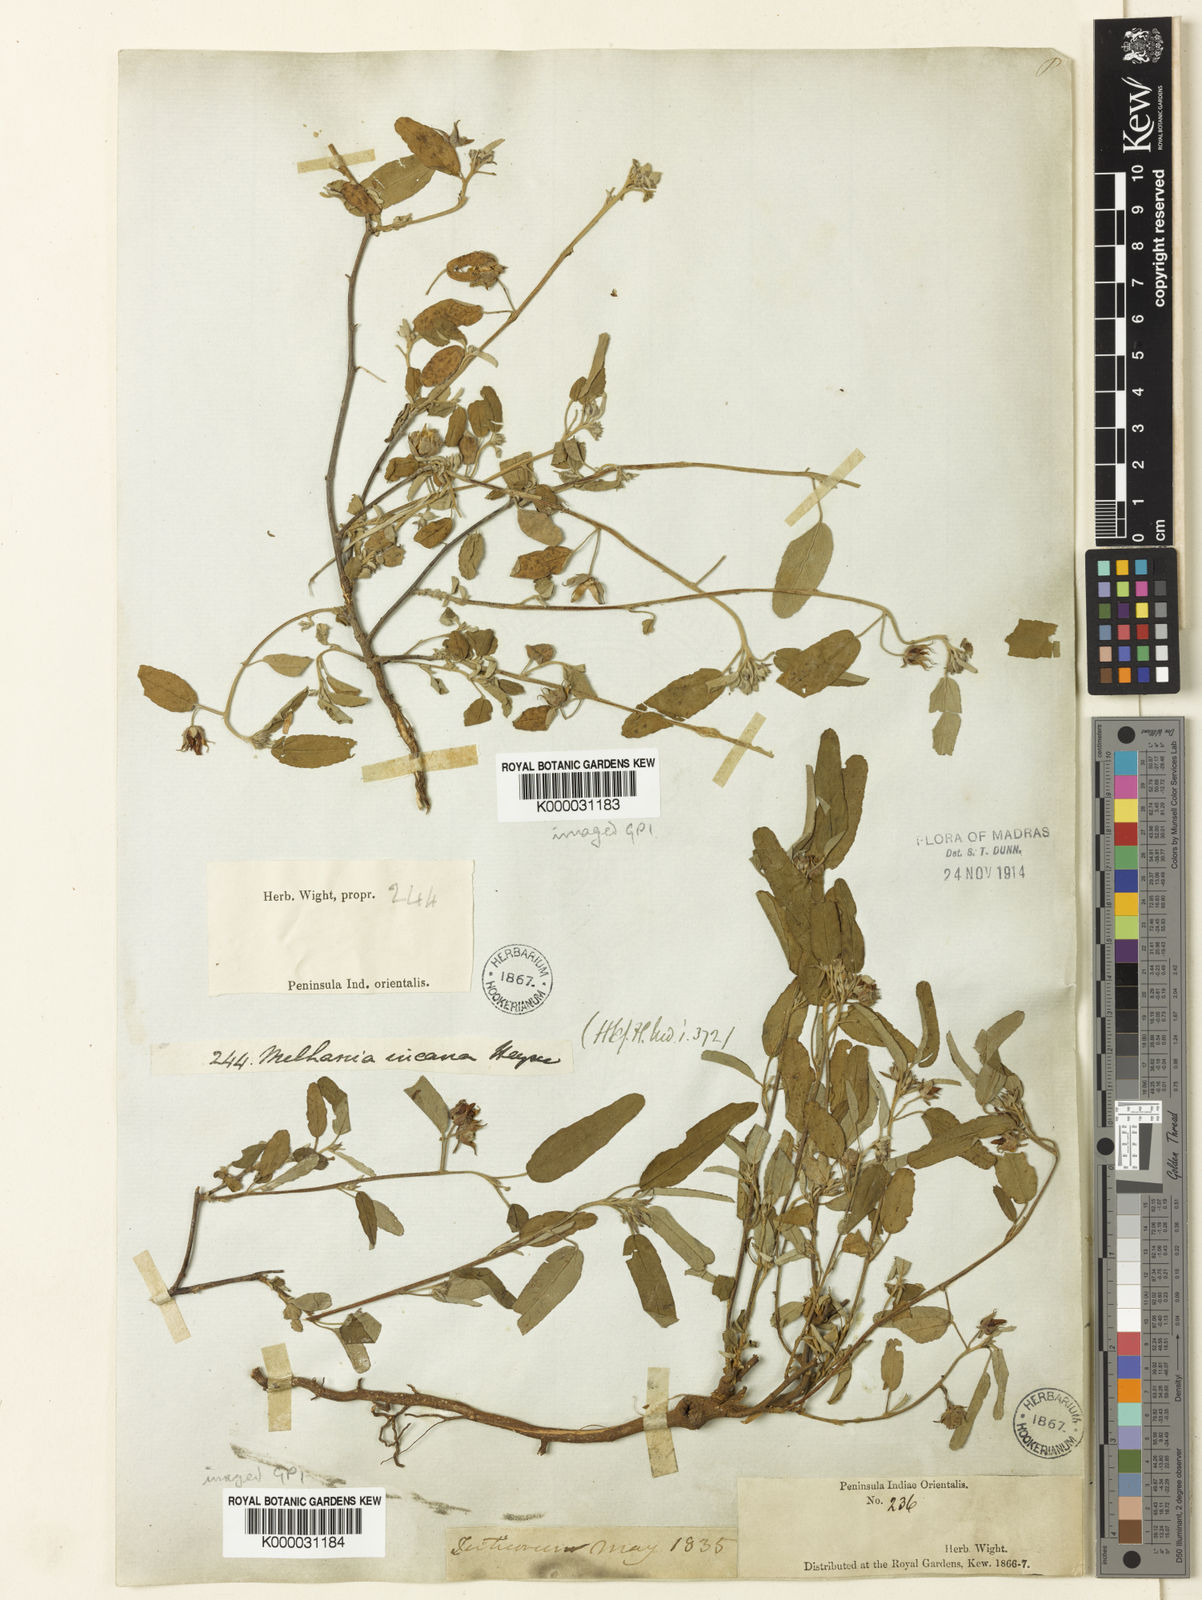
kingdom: Plantae
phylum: Tracheophyta
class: Magnoliopsida
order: Malvales
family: Malvaceae
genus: Melhania
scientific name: Melhania
